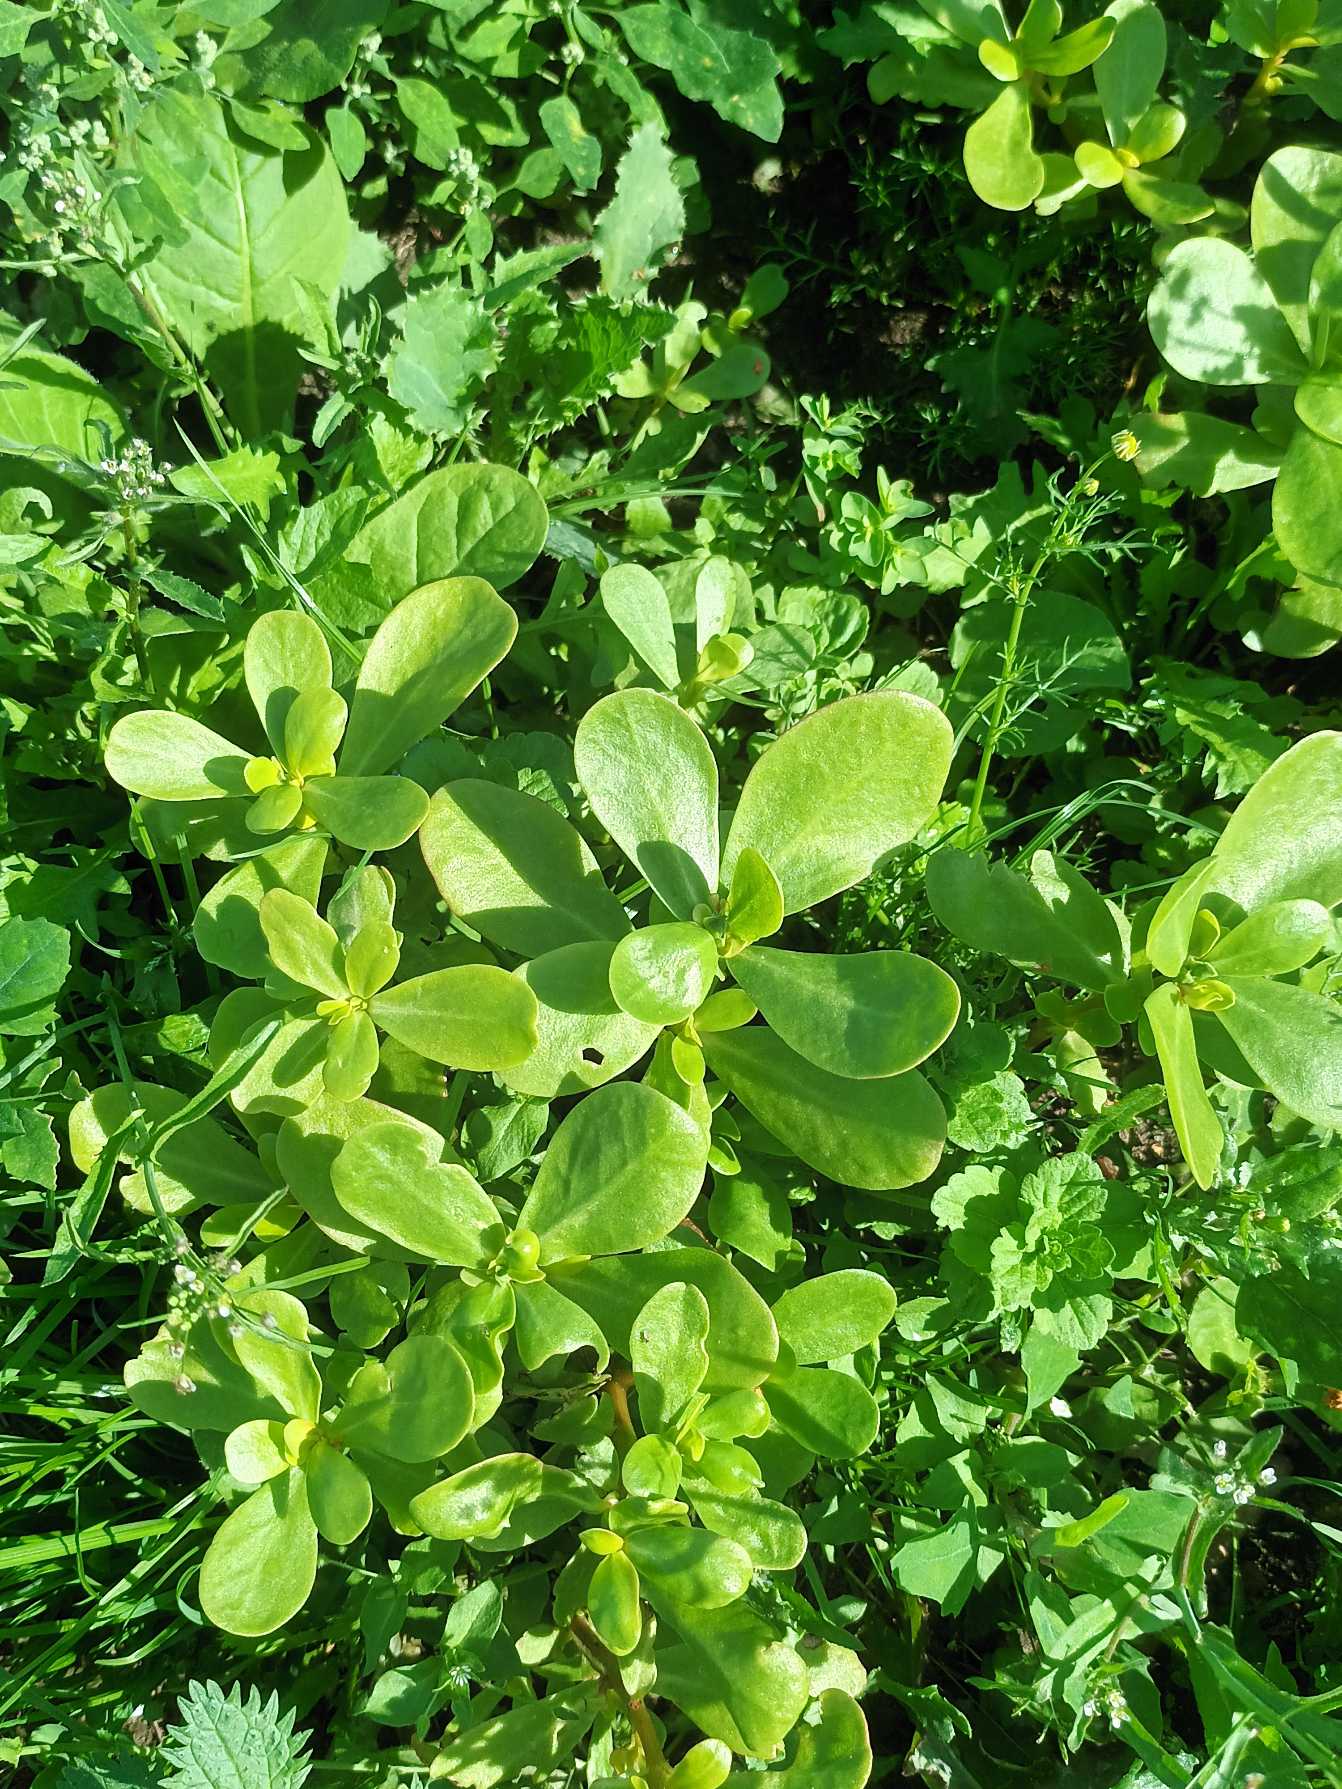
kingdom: Plantae
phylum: Tracheophyta
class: Magnoliopsida
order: Caryophyllales
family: Portulacaceae
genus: Portulaca
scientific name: Portulaca sativa
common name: Have-portulak
